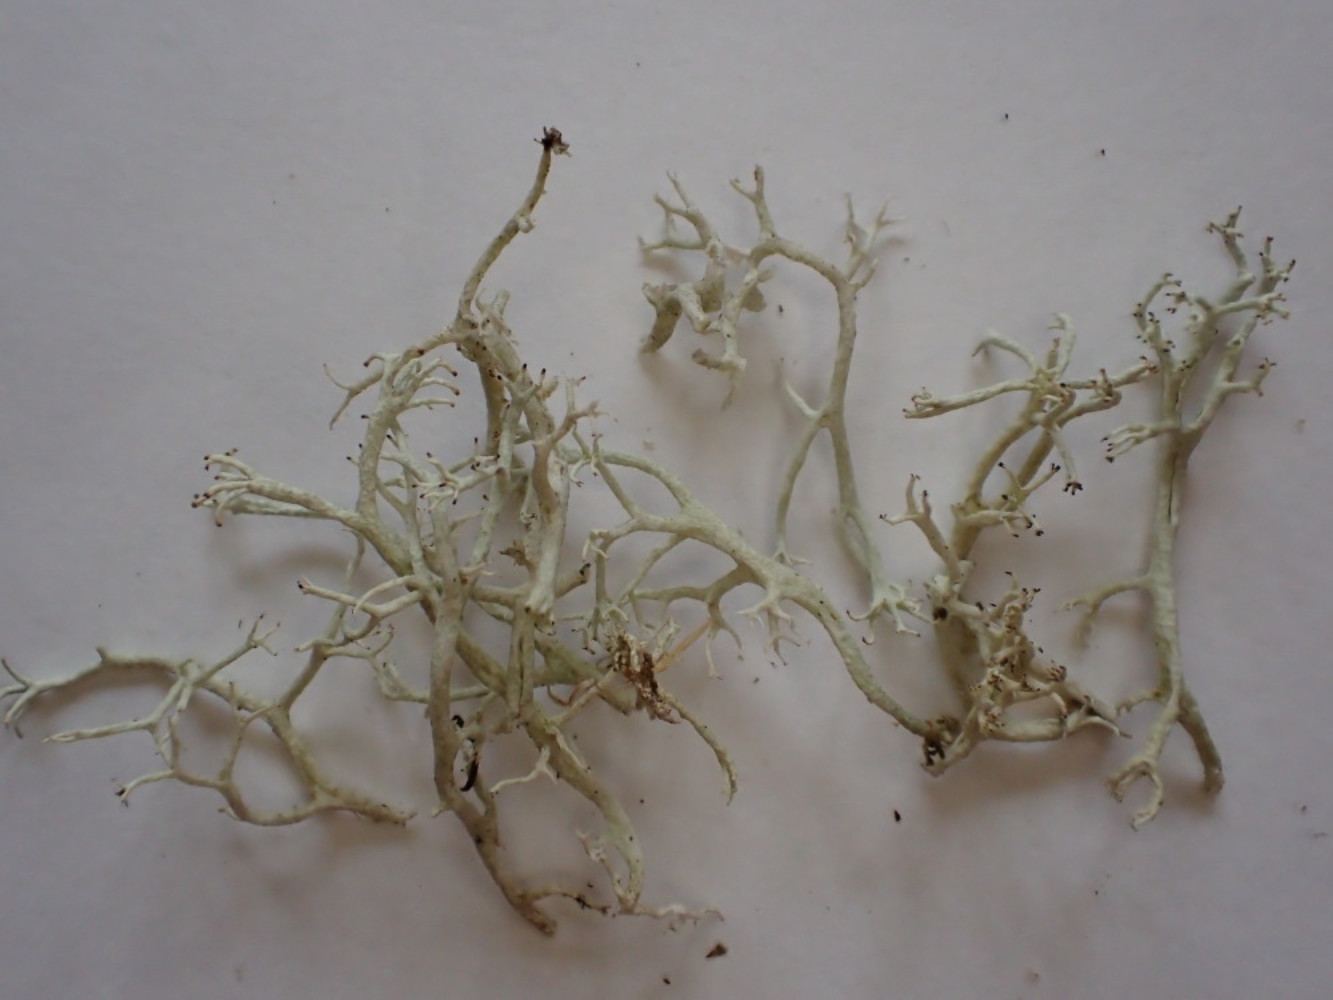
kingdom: Fungi
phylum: Ascomycota
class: Lecanoromycetes
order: Lecanorales
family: Cladoniaceae
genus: Cladonia
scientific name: Cladonia portentosa
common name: hede-rensdyrlav
